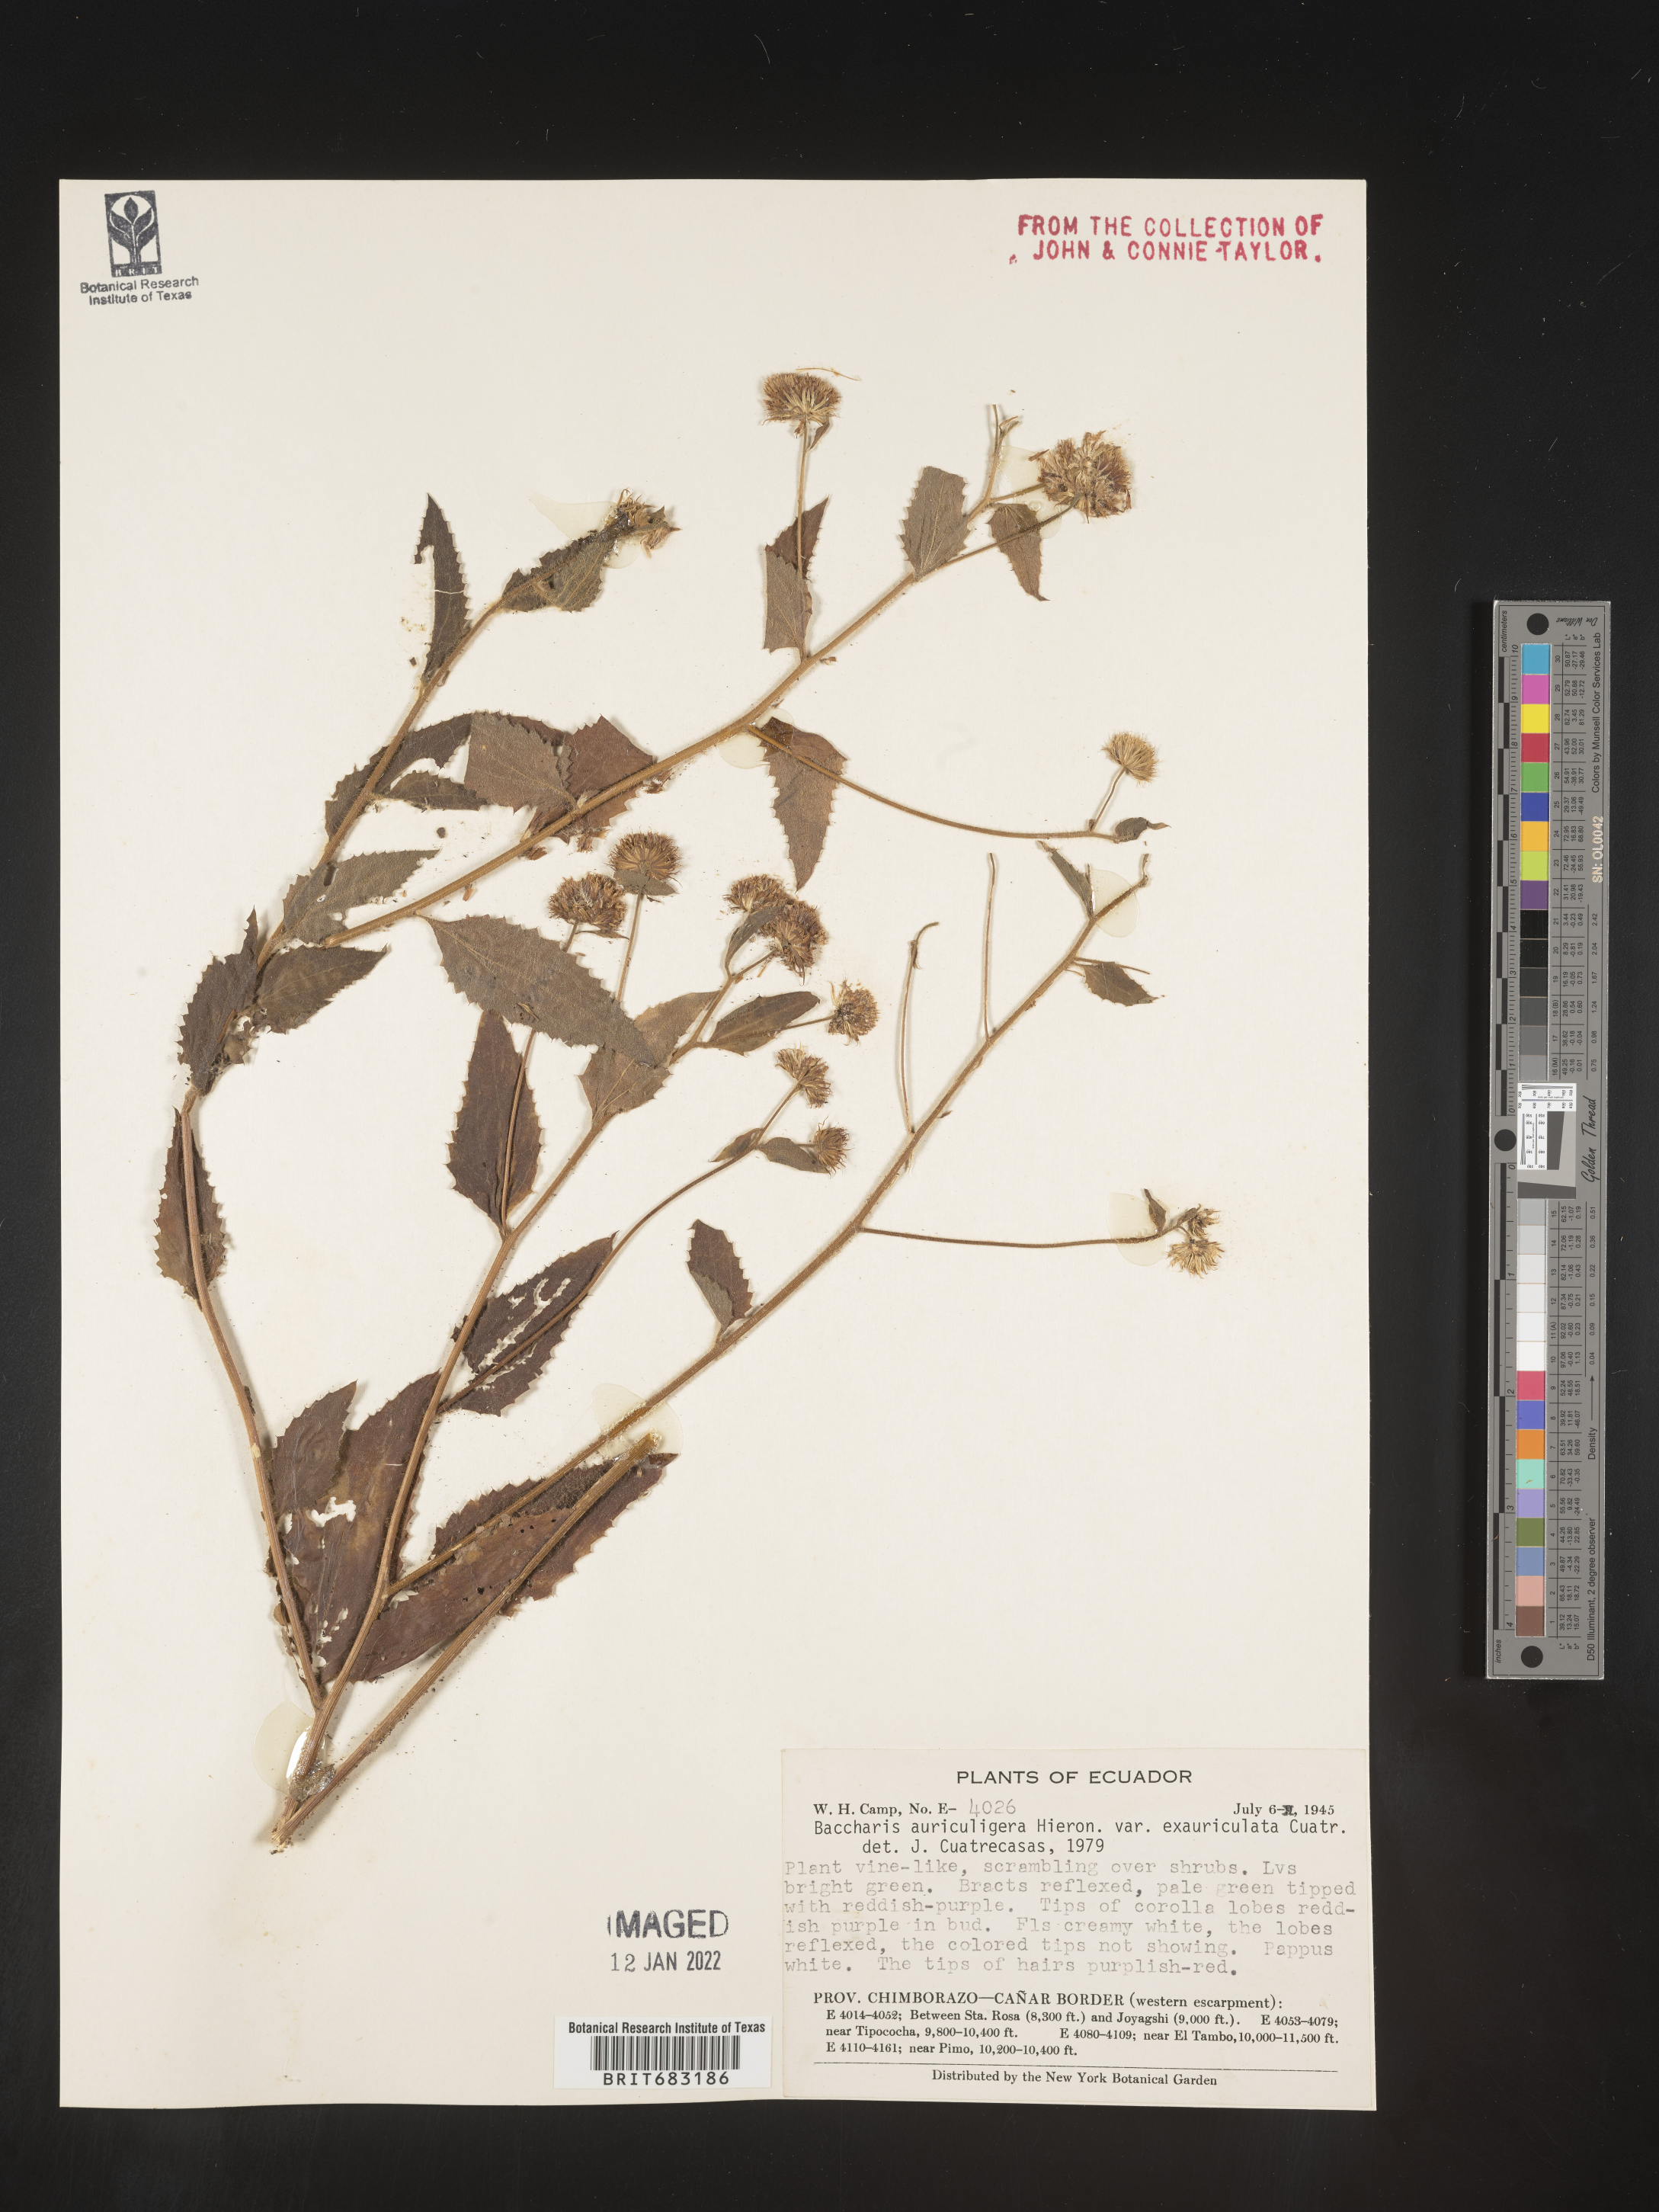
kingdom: Plantae
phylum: Tracheophyta
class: Magnoliopsida
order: Asterales
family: Asteraceae
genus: Baccharis
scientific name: Baccharis
